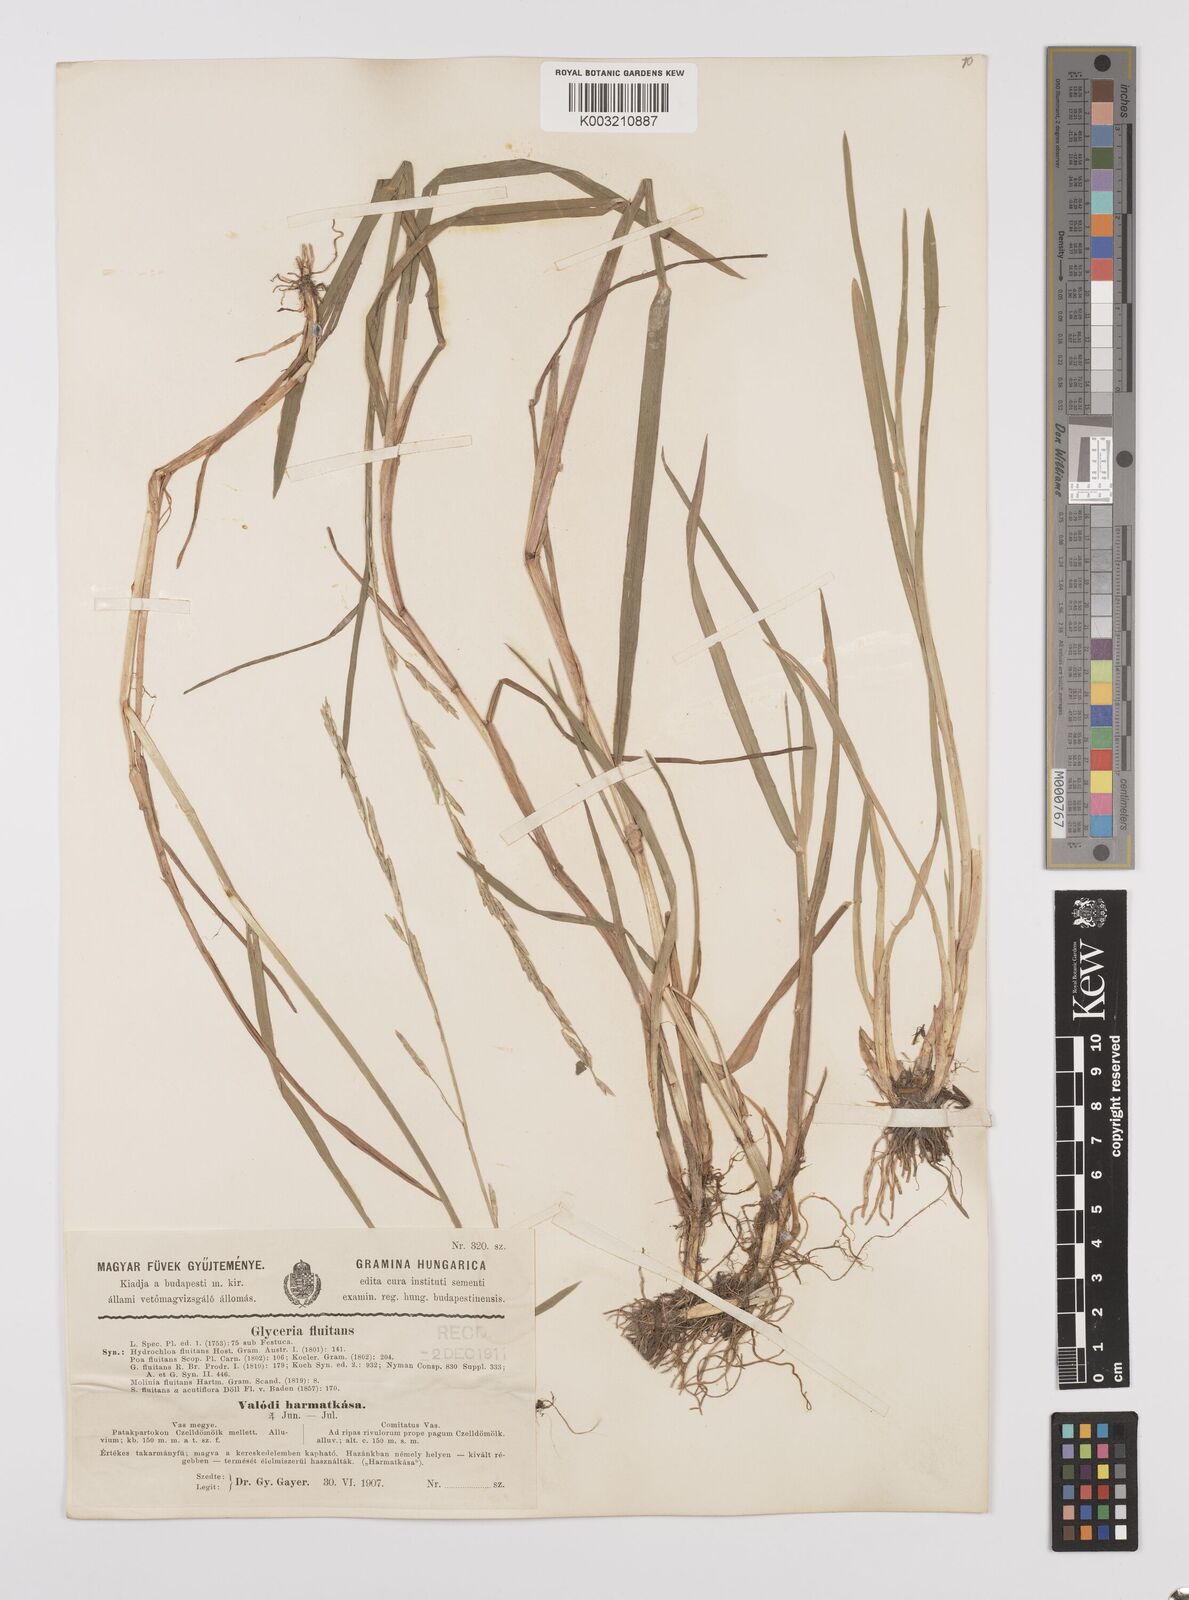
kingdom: Plantae
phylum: Tracheophyta
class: Liliopsida
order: Poales
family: Poaceae
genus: Glyceria
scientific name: Glyceria fluitans
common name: Floating sweet-grass
